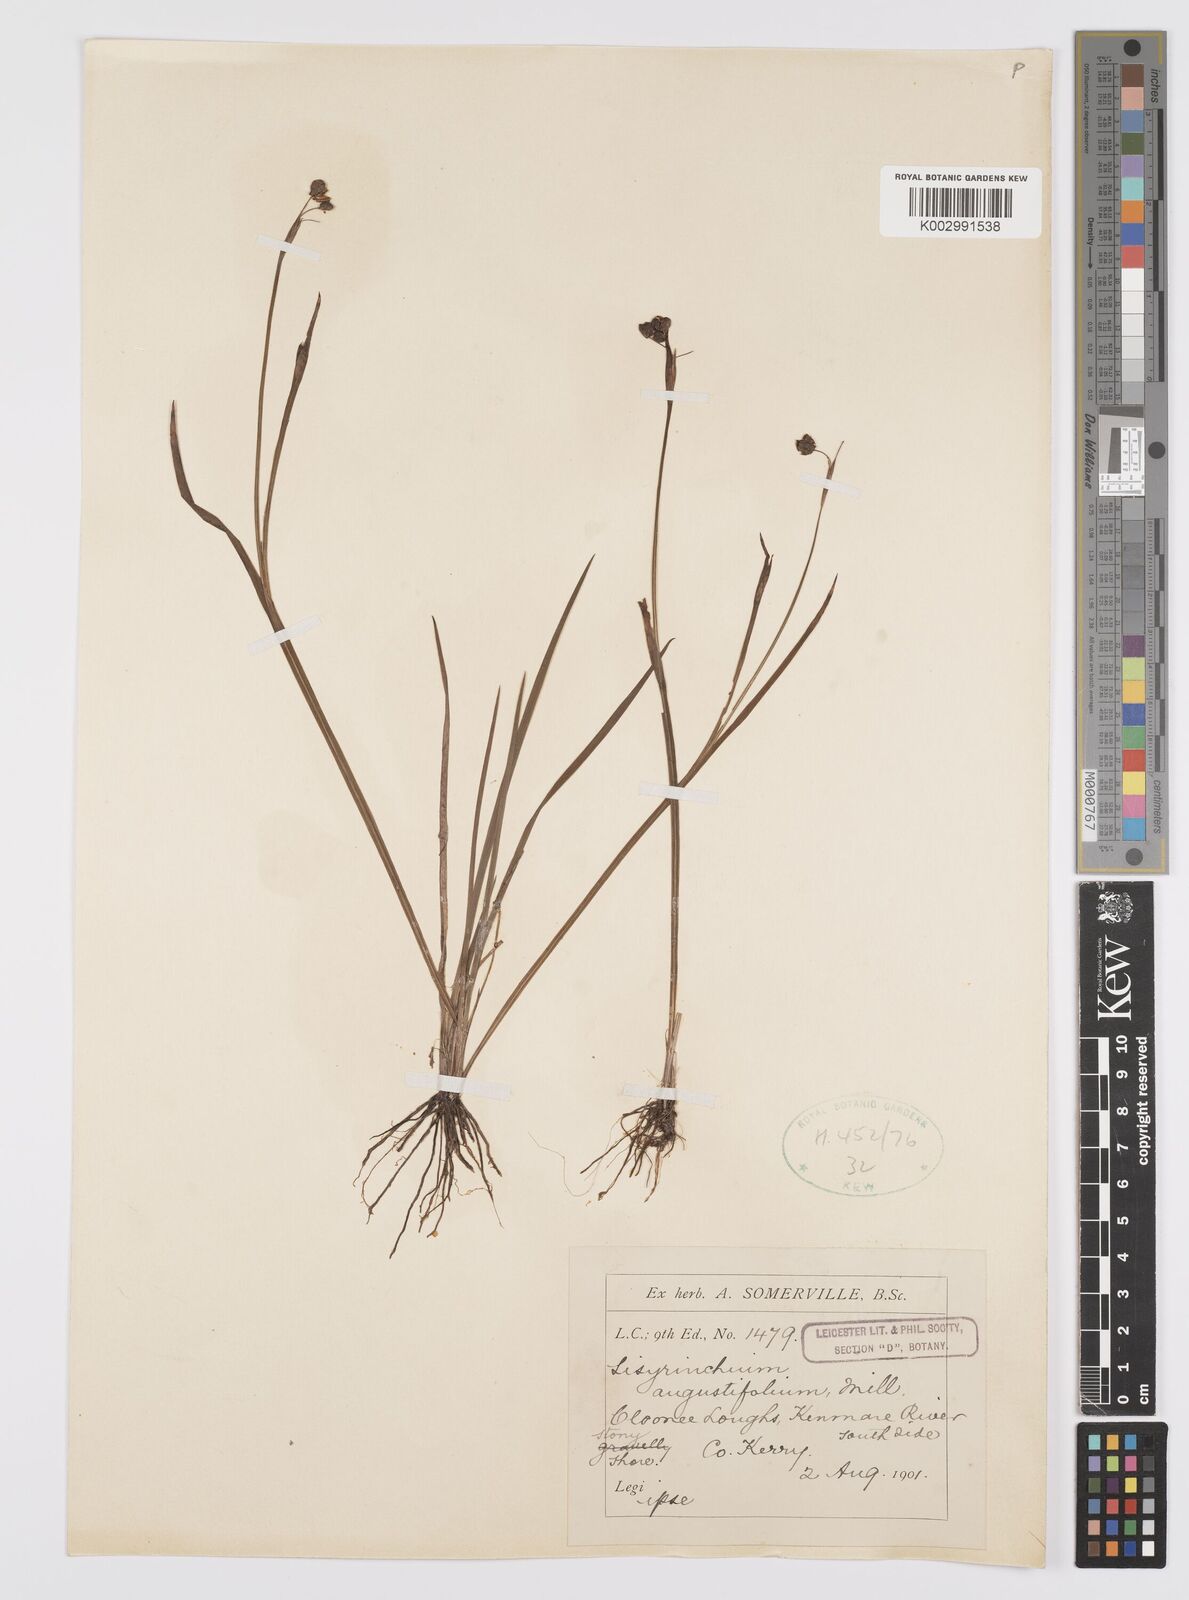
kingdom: Plantae
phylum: Tracheophyta
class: Liliopsida
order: Asparagales
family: Iridaceae
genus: Sisyrinchium
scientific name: Sisyrinchium angustifolium
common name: Narrow-leaf blue-eyed-grass
